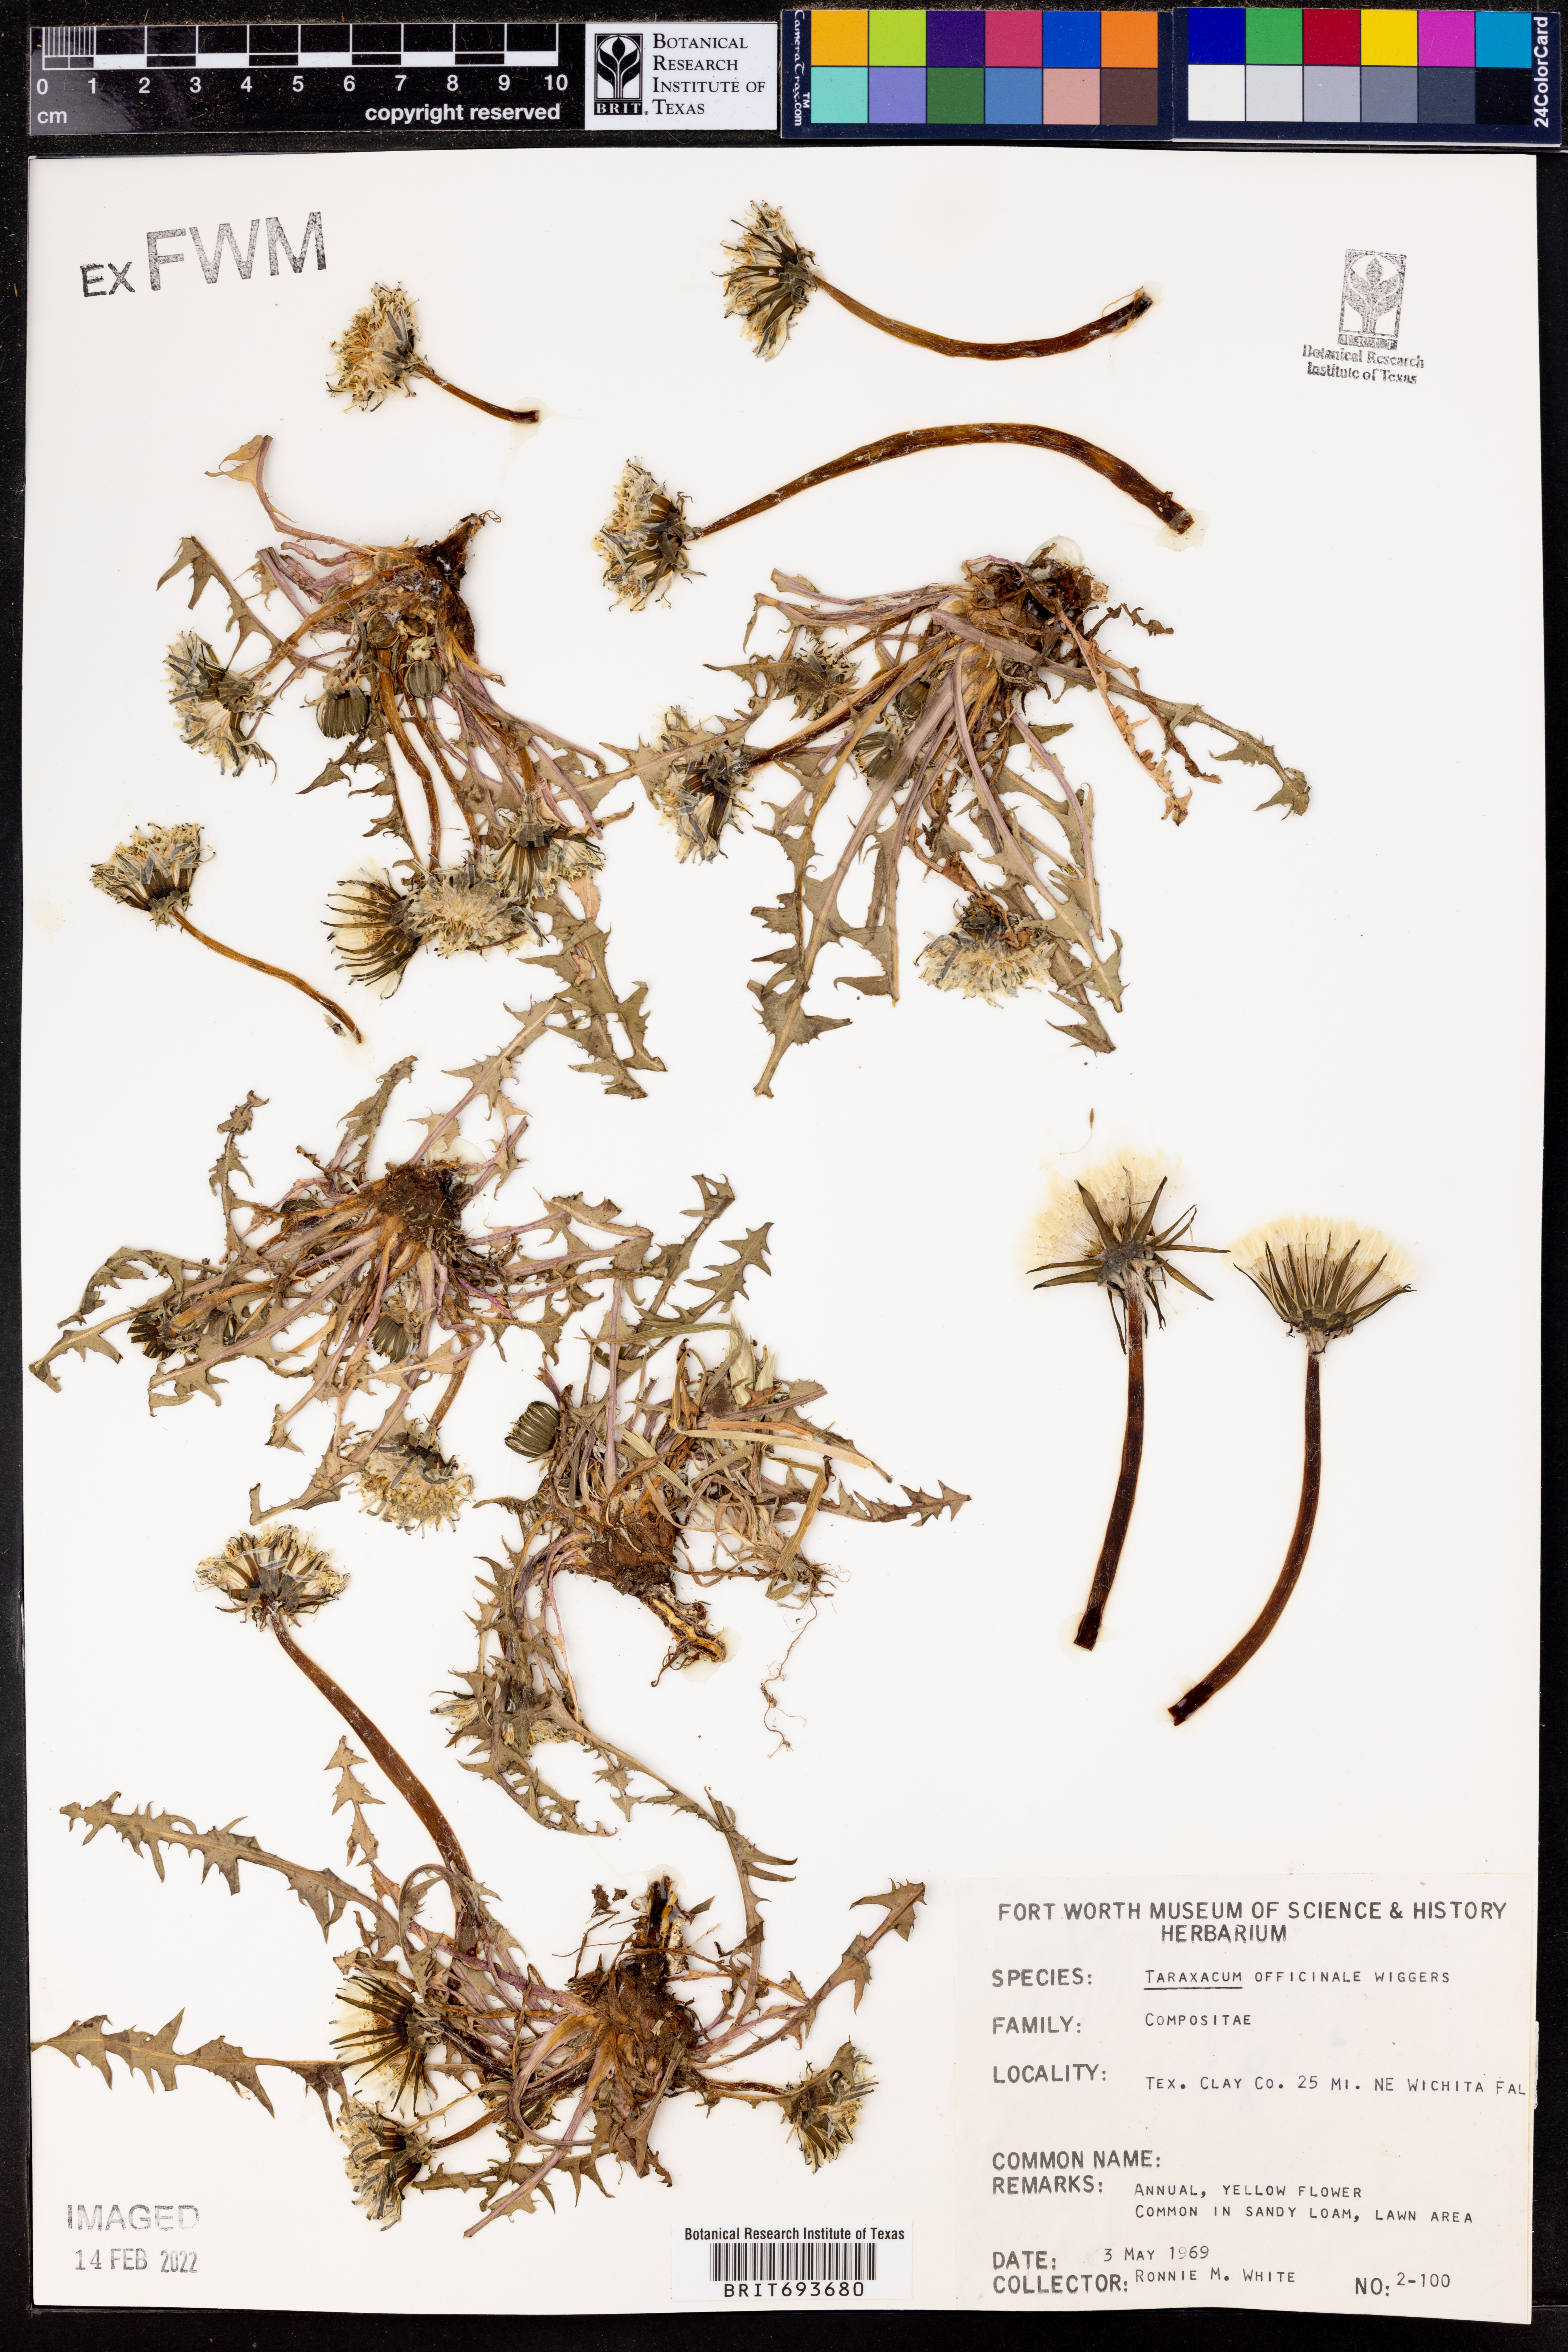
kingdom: Plantae
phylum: Tracheophyta
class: Magnoliopsida
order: Asterales
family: Asteraceae
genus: Taraxacum
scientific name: Taraxacum officinale
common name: Common dandelion
